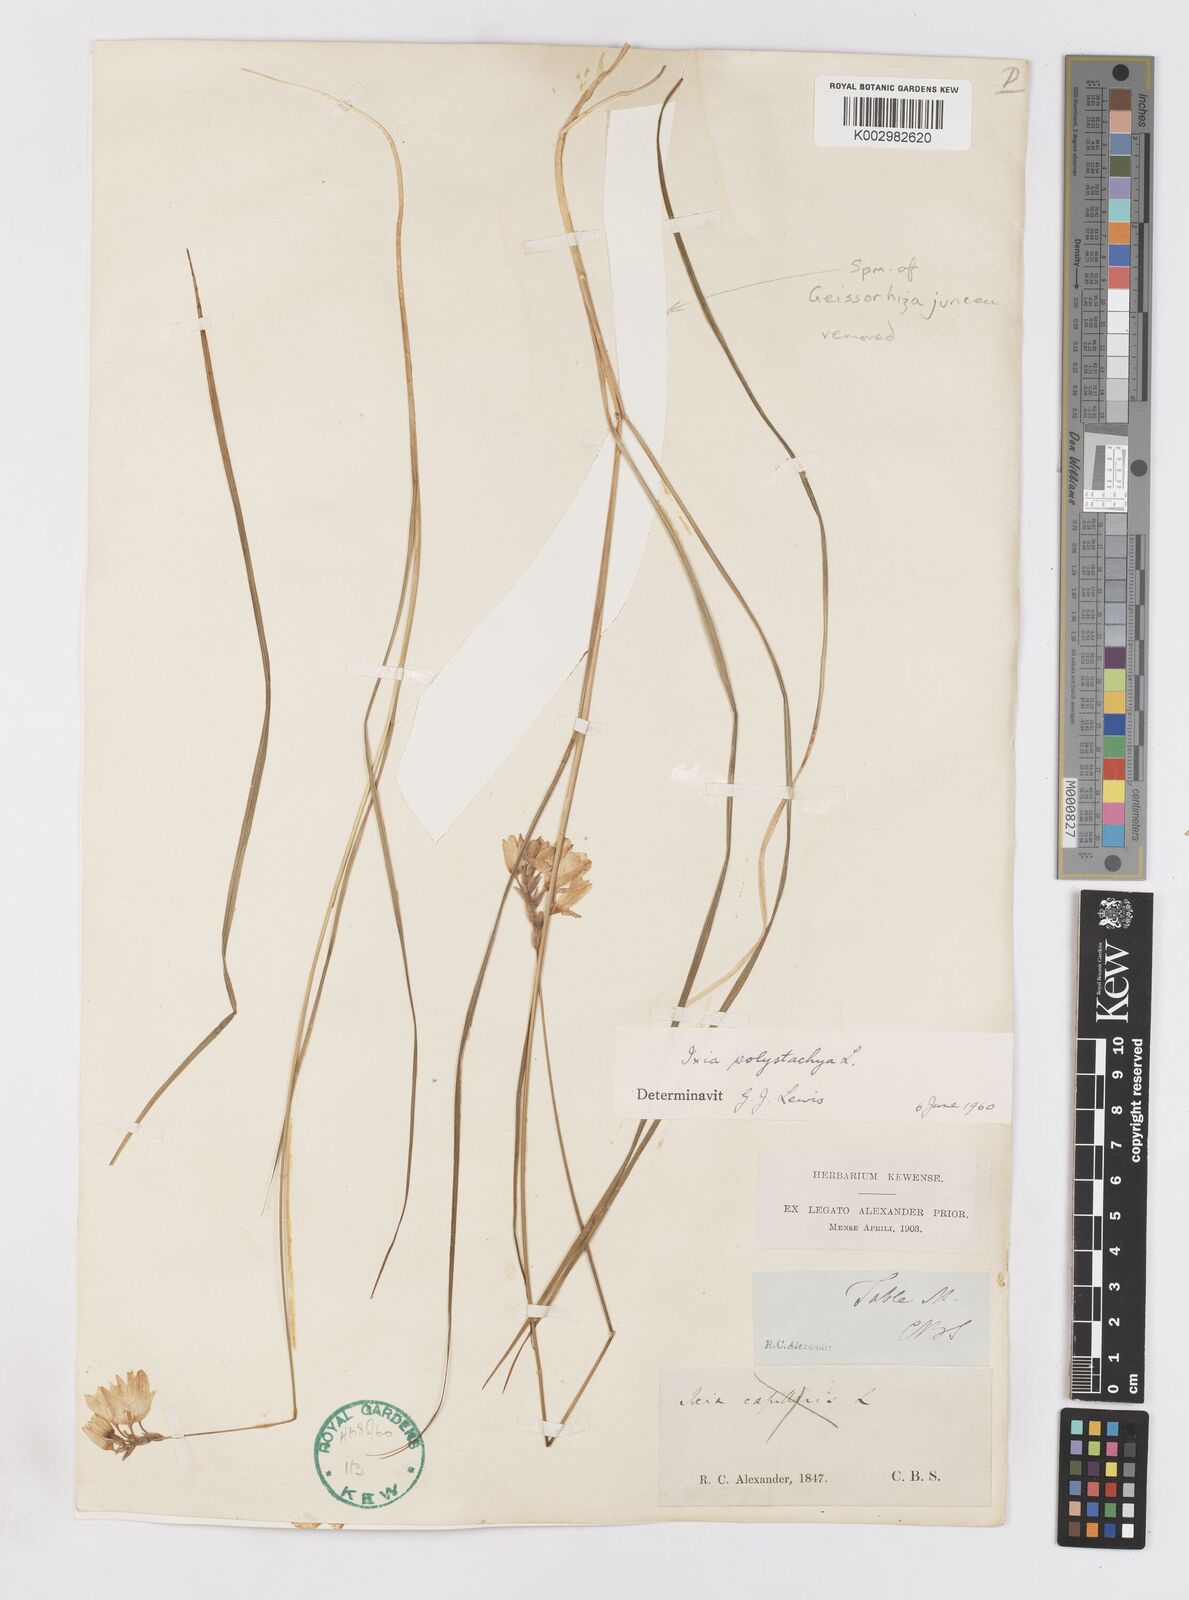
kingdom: Plantae
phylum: Tracheophyta
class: Liliopsida
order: Asparagales
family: Iridaceae
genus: Ixia
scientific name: Ixia polystachya
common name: White-and-yellow-flower cornlily
